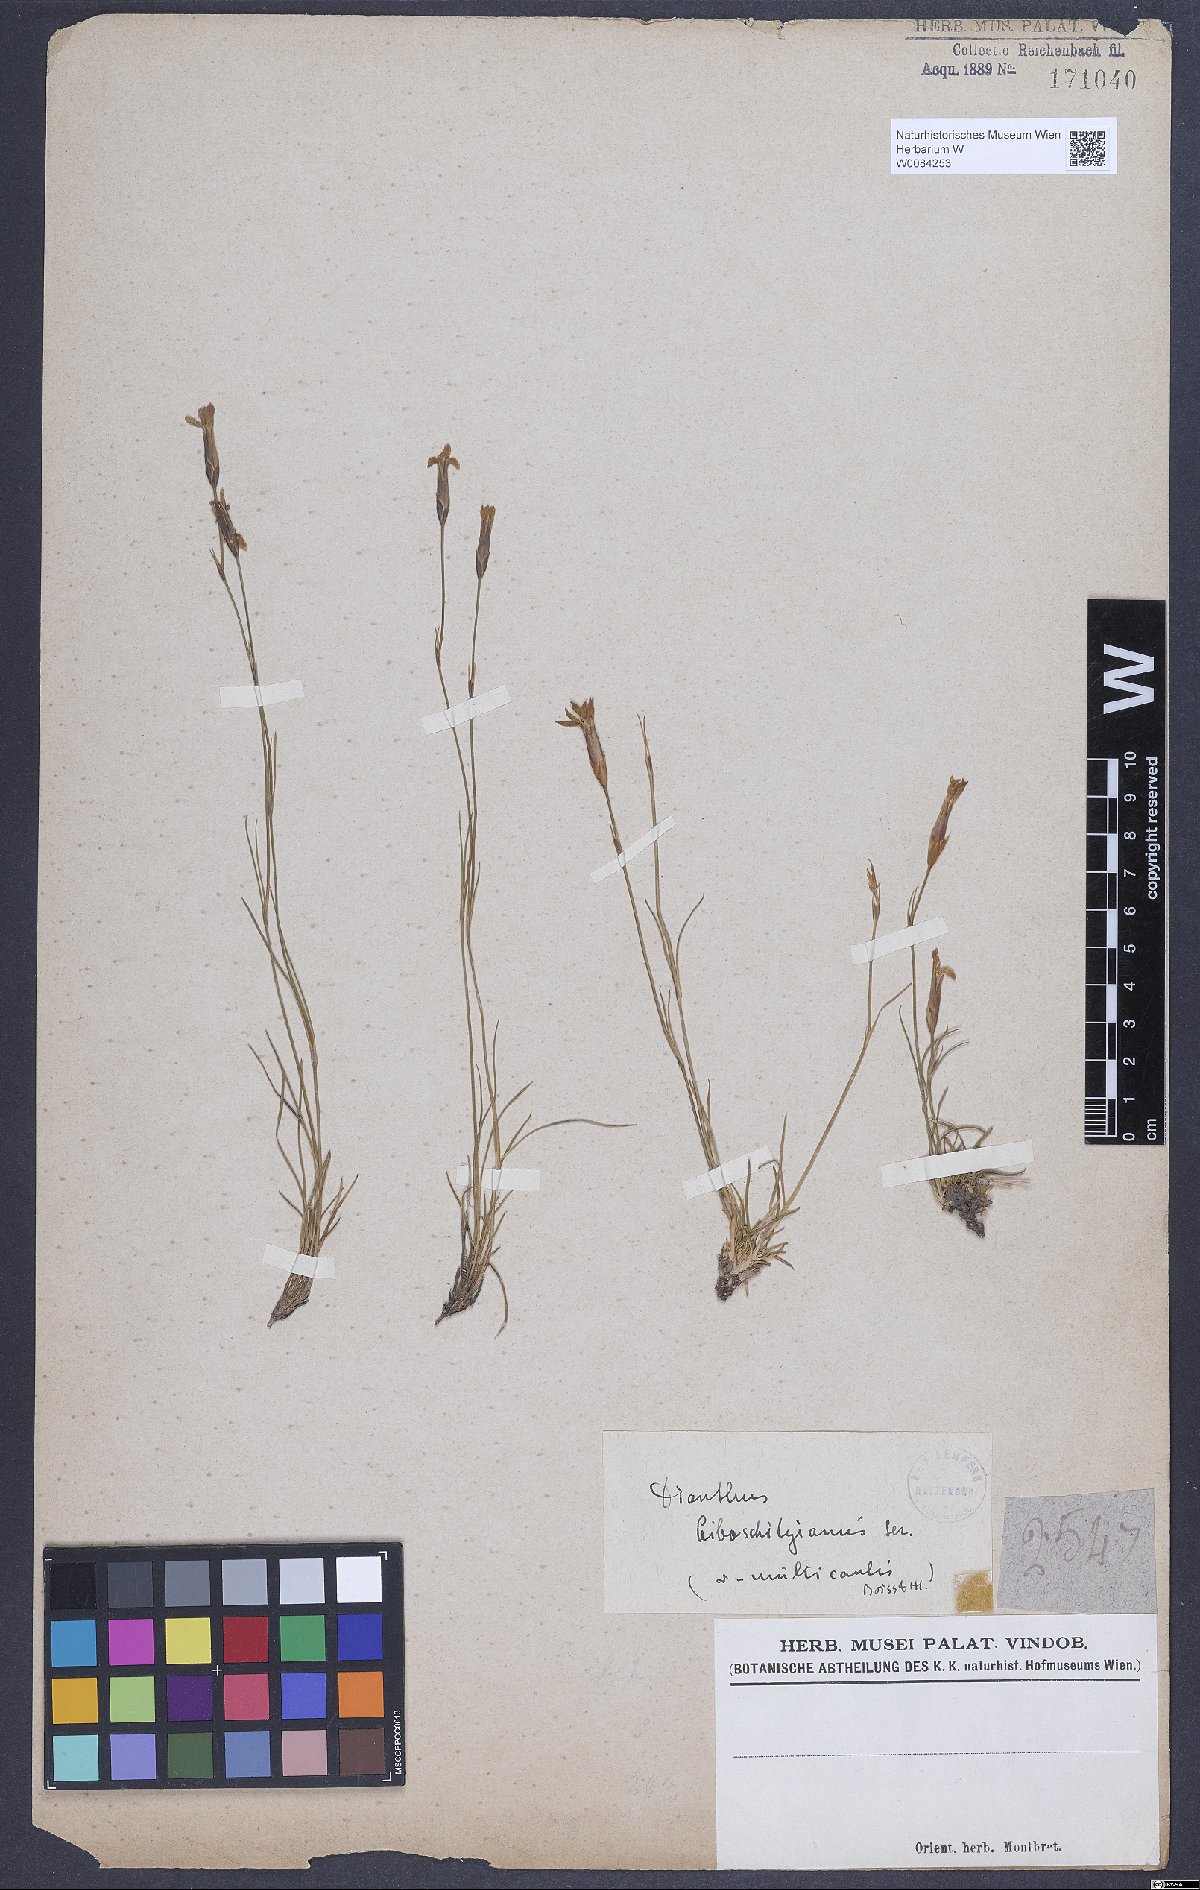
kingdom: Plantae
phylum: Tracheophyta
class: Magnoliopsida
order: Caryophyllales
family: Caryophyllaceae
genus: Dianthus
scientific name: Dianthus cretaceus
